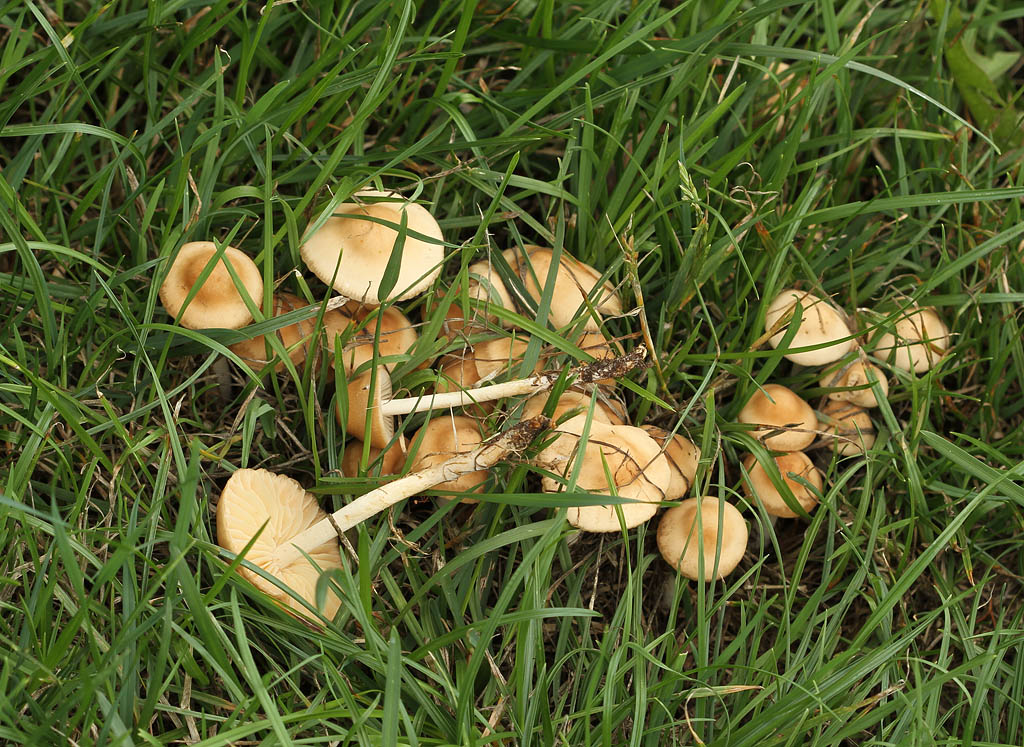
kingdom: Fungi
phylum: Basidiomycota
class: Agaricomycetes
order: Agaricales
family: Marasmiaceae
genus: Marasmius
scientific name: Marasmius oreades
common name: elledans-bruskhat
